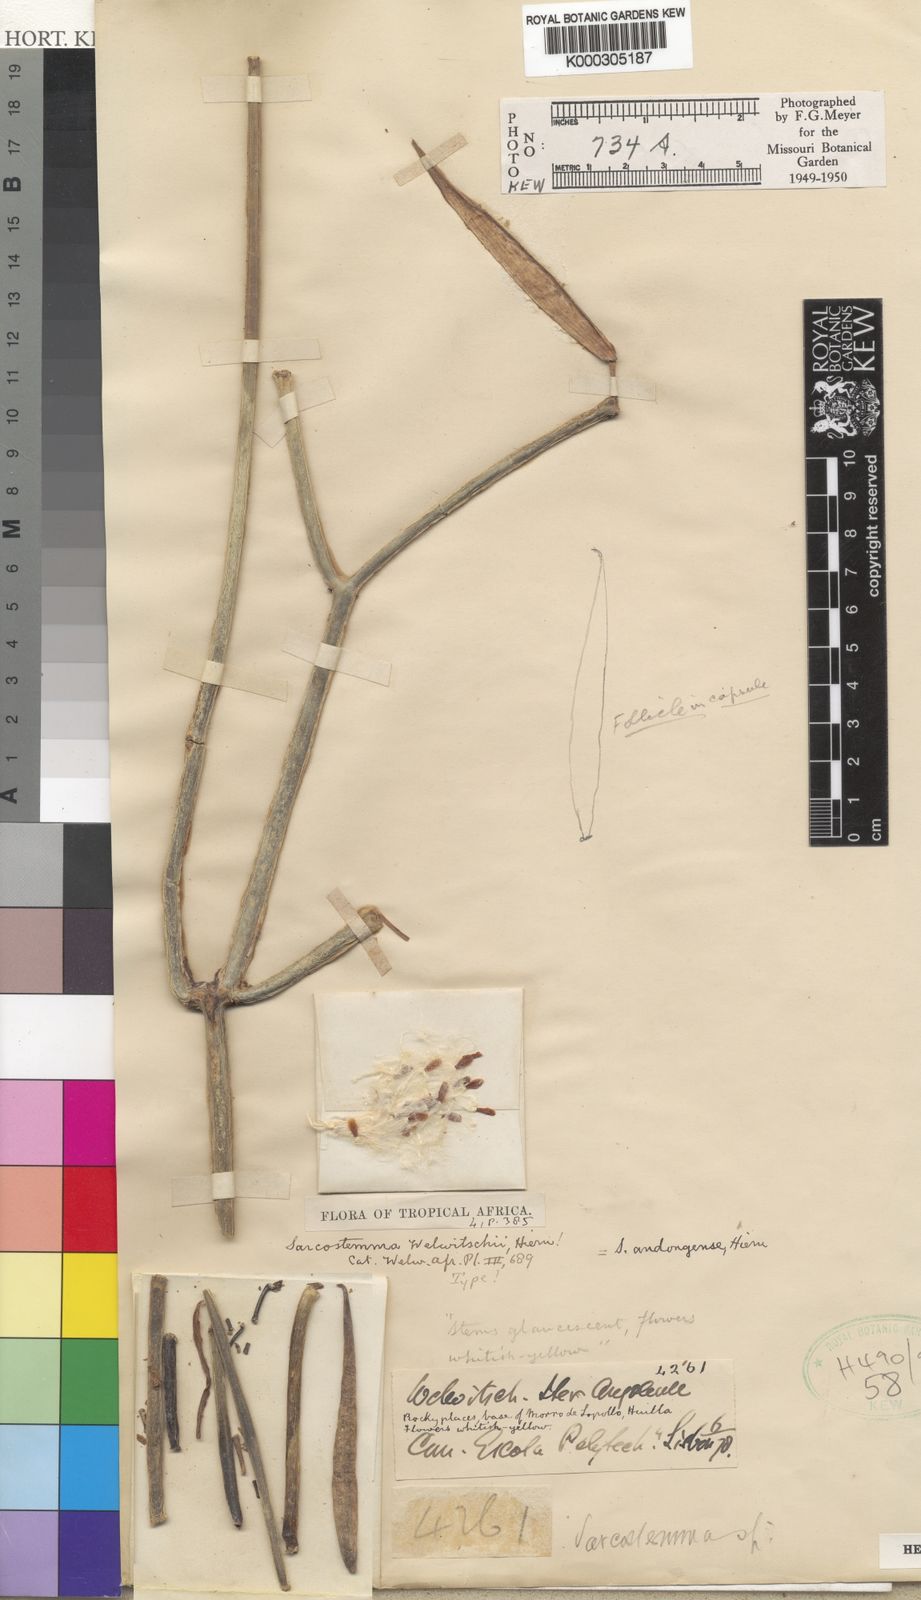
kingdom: Plantae
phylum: Tracheophyta
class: Magnoliopsida
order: Gentianales
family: Apocynaceae
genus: Cynanchum
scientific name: Cynanchum viminale
